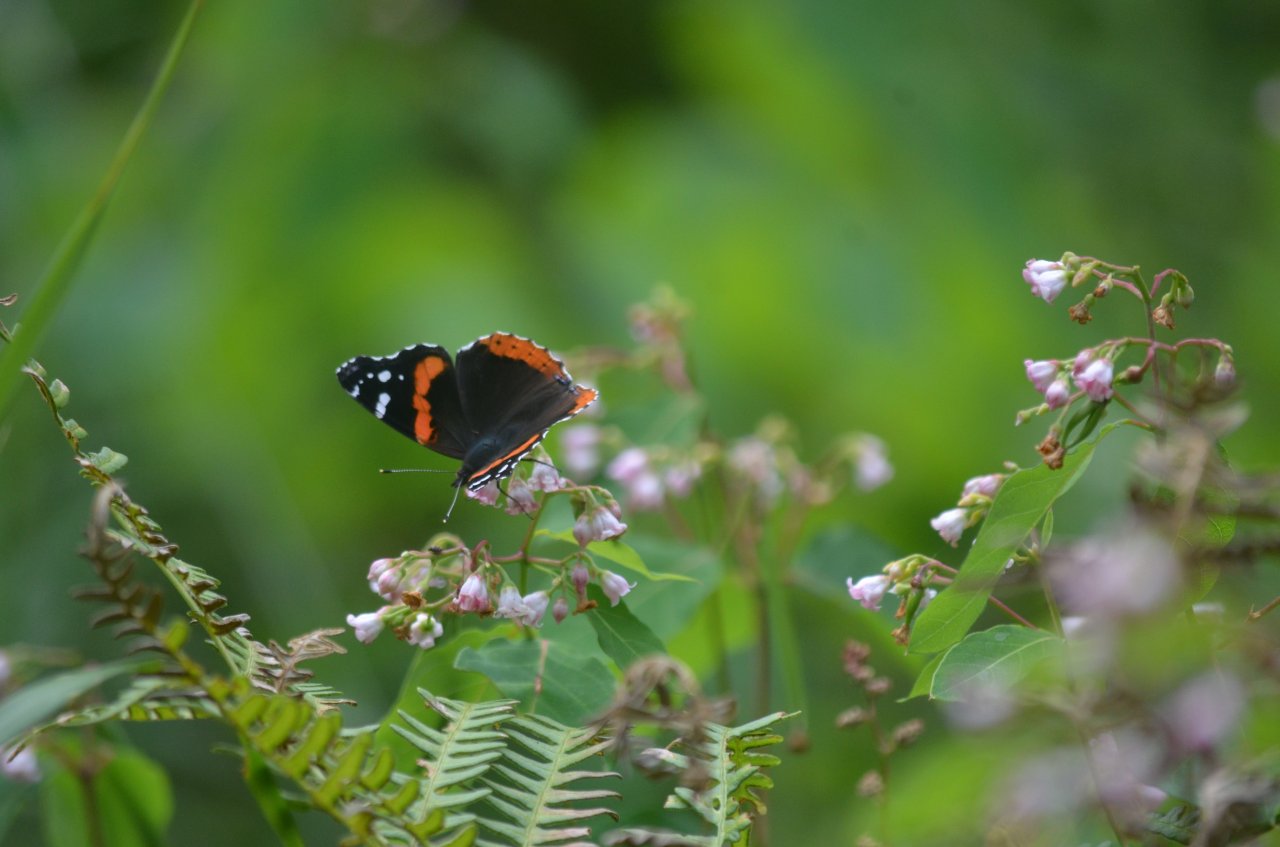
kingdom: Animalia
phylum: Arthropoda
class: Insecta
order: Lepidoptera
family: Nymphalidae
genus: Vanessa
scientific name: Vanessa atalanta
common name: Red Admiral
